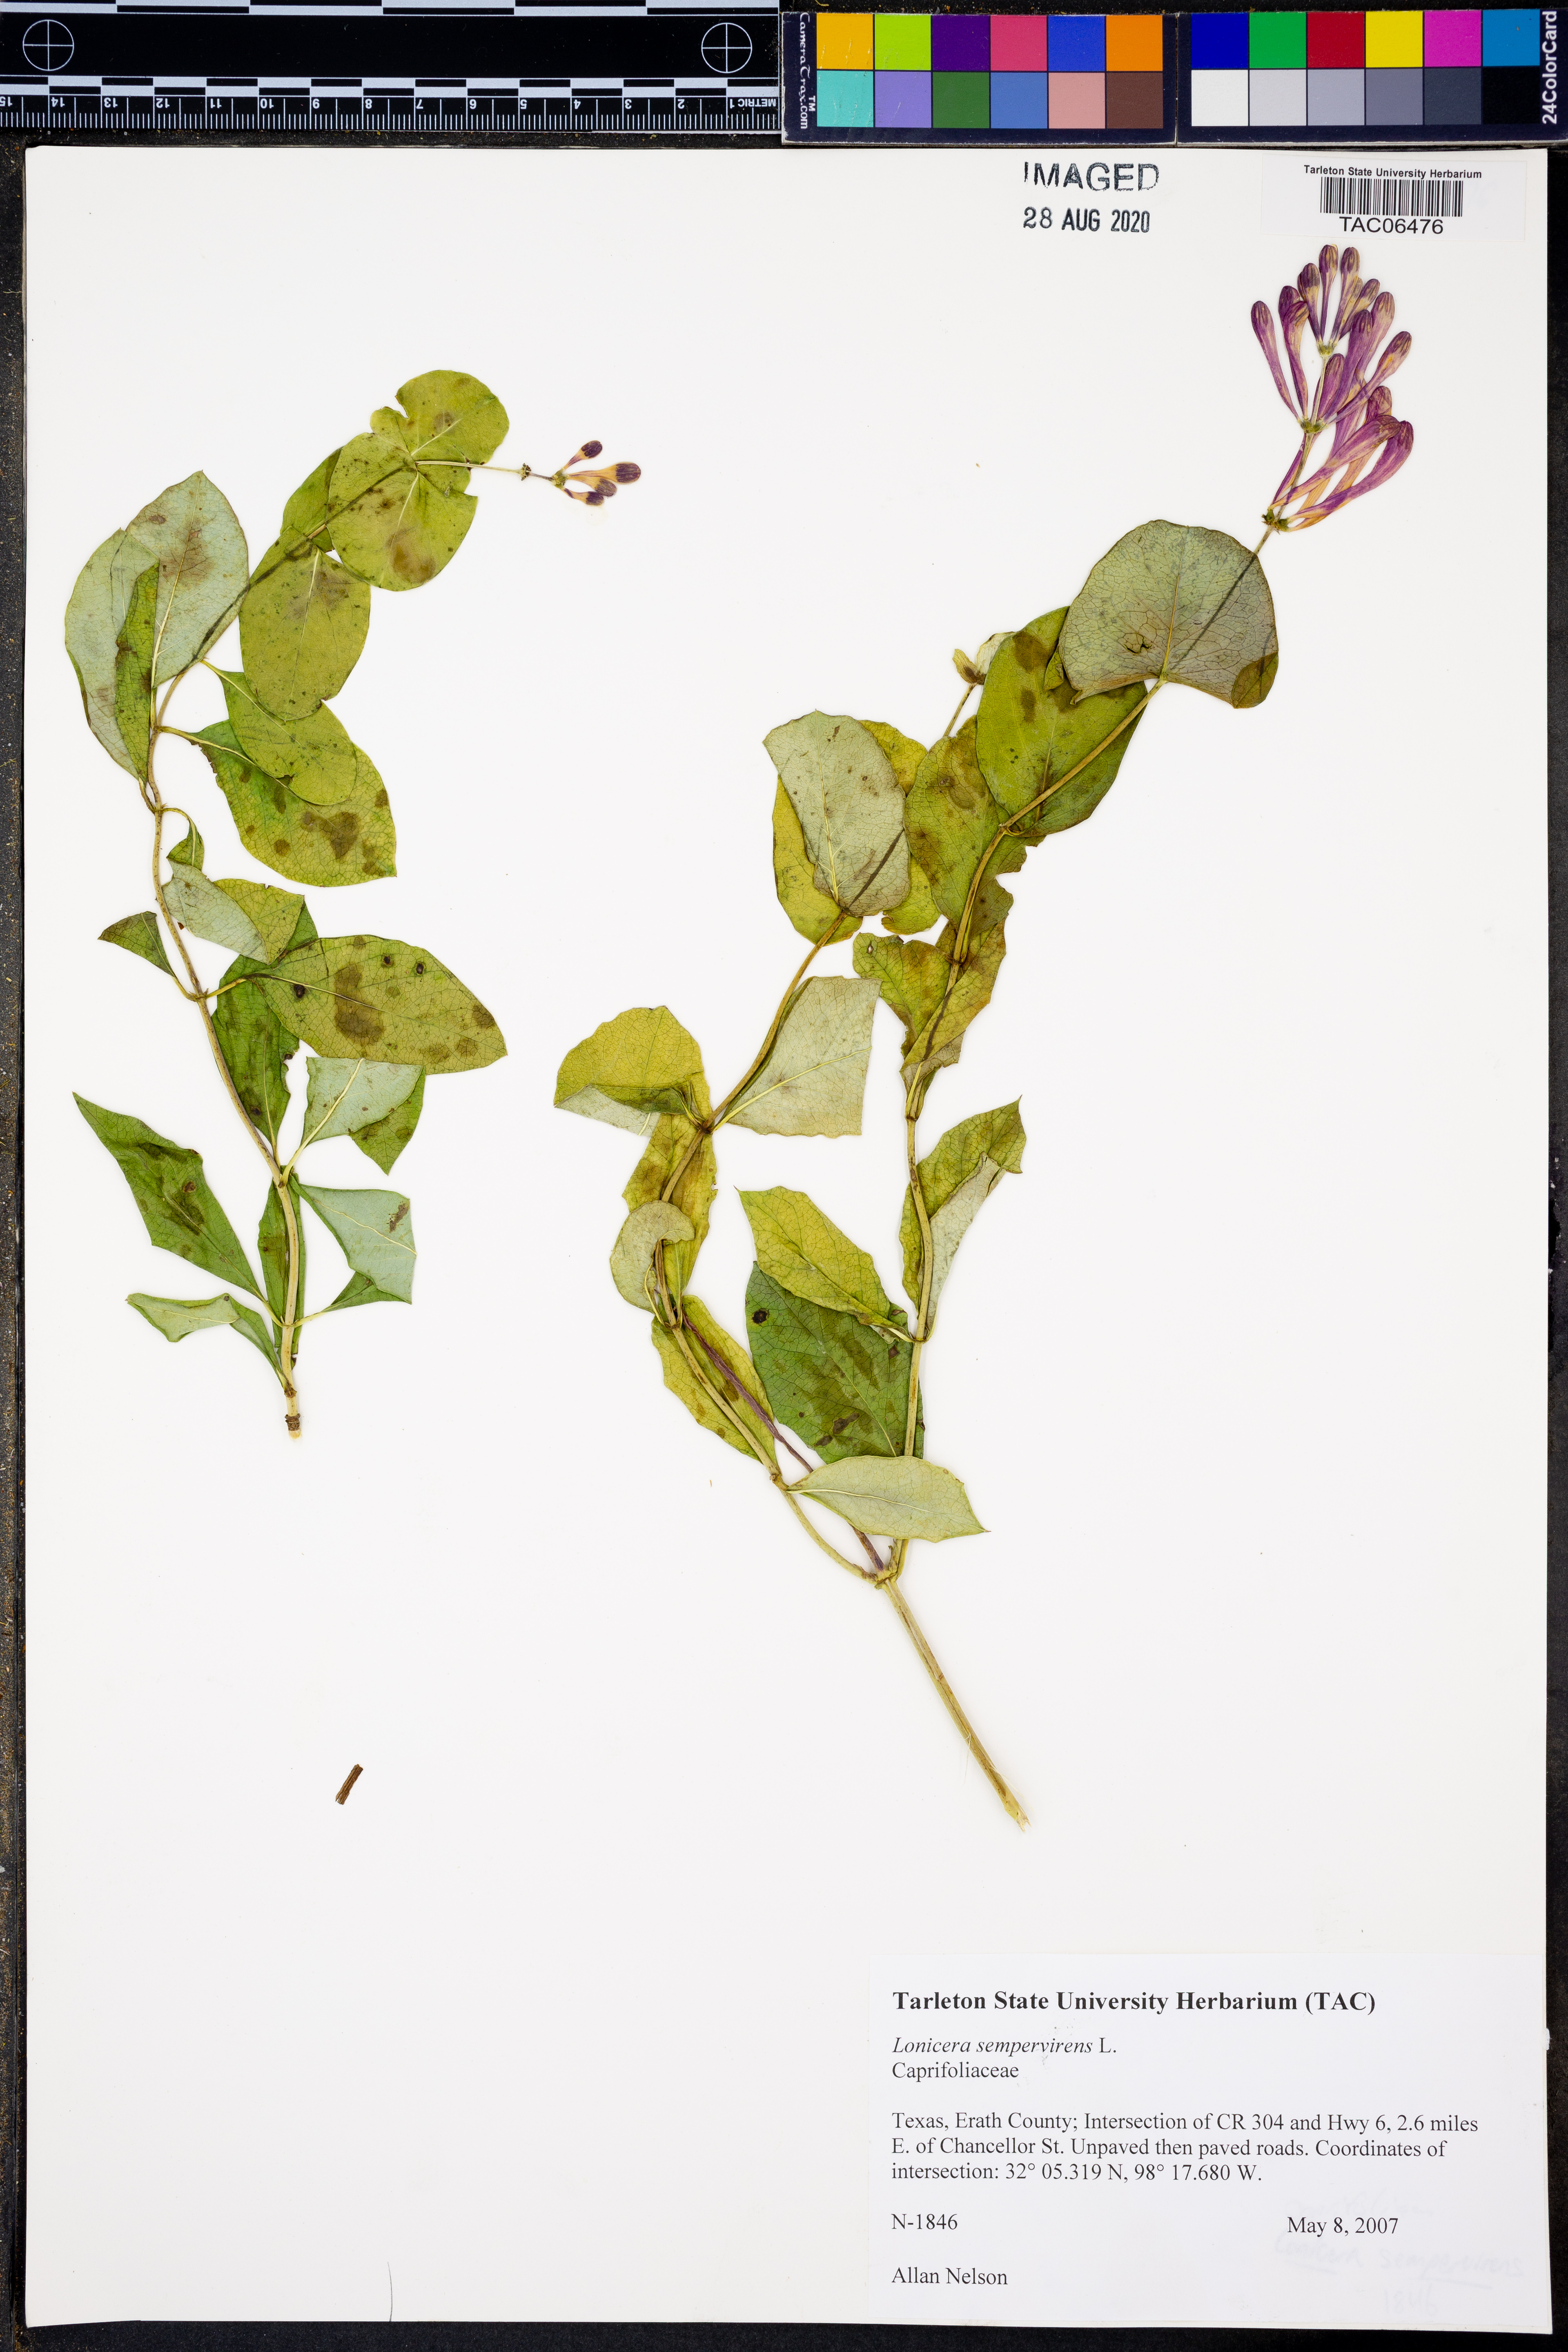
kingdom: Plantae
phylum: Tracheophyta
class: Magnoliopsida
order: Dipsacales
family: Caprifoliaceae
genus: Lonicera
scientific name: Lonicera sempervirens
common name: Coral honeysuckle
